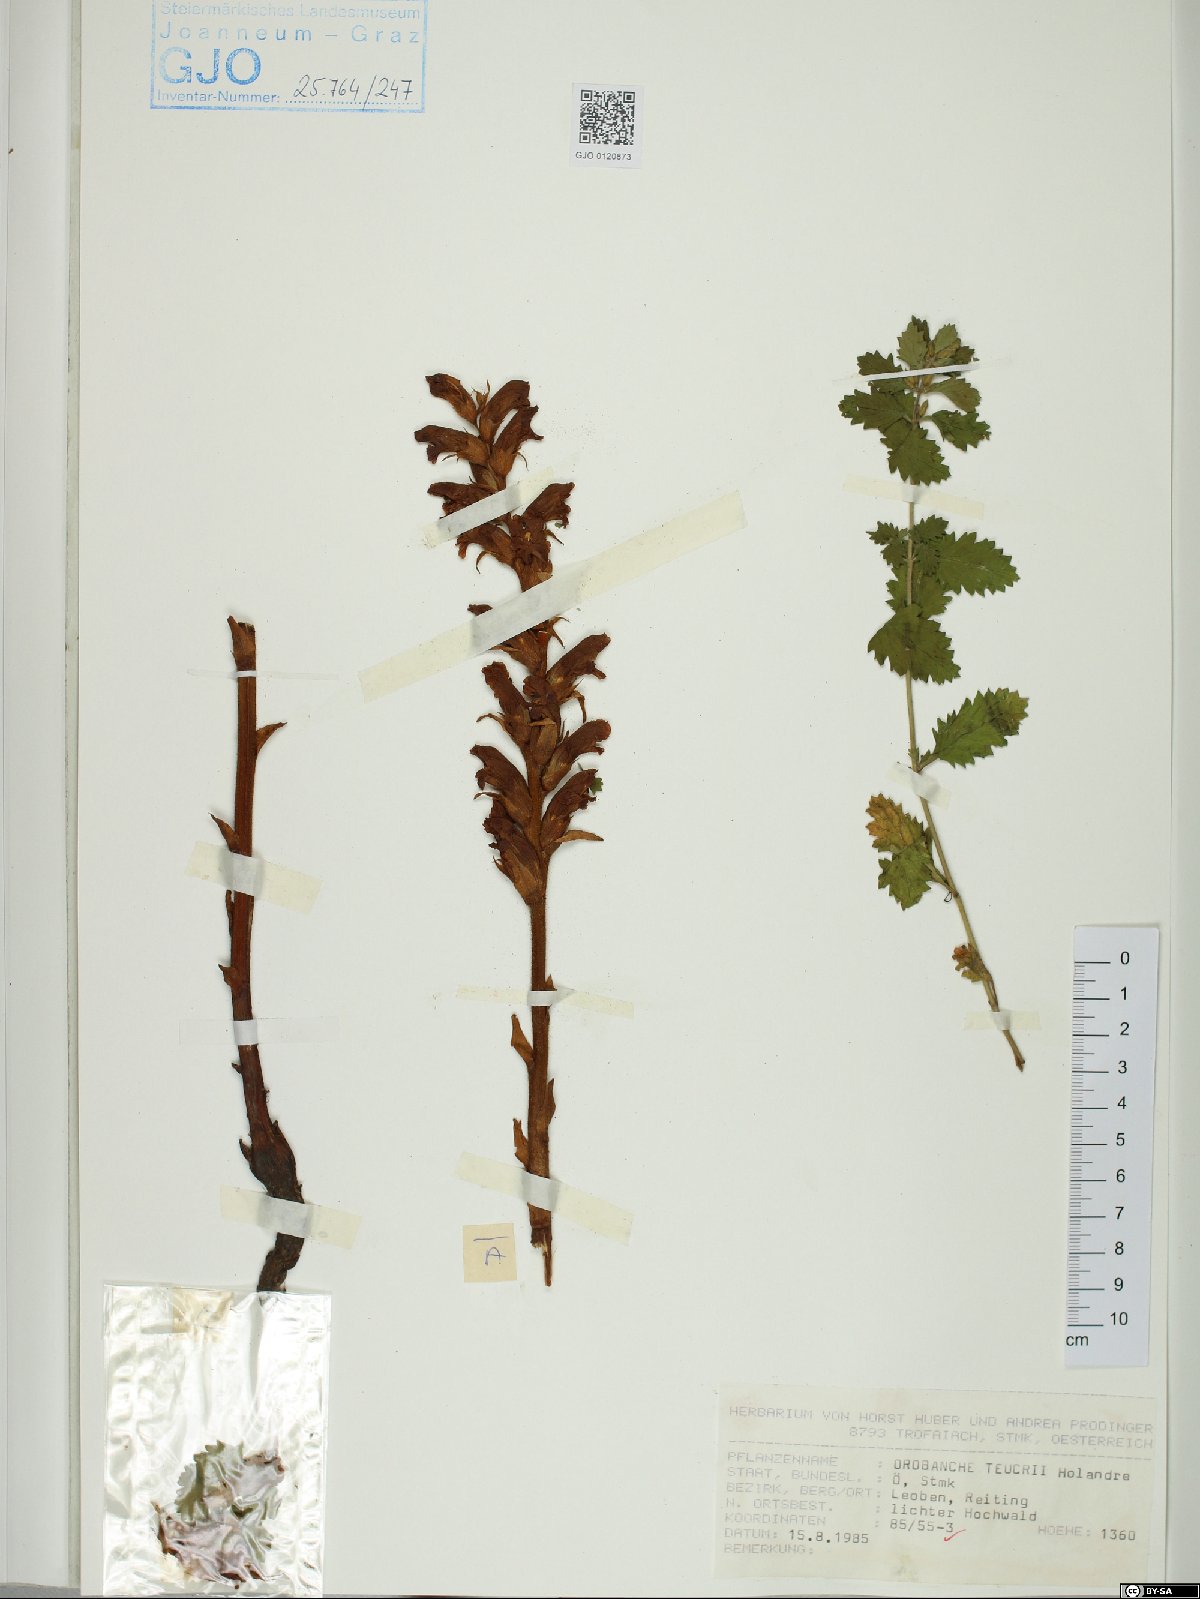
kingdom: Plantae
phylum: Tracheophyta
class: Magnoliopsida
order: Lamiales
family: Orobanchaceae
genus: Orobanche
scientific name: Orobanche teucrii
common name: Germander broomrape
